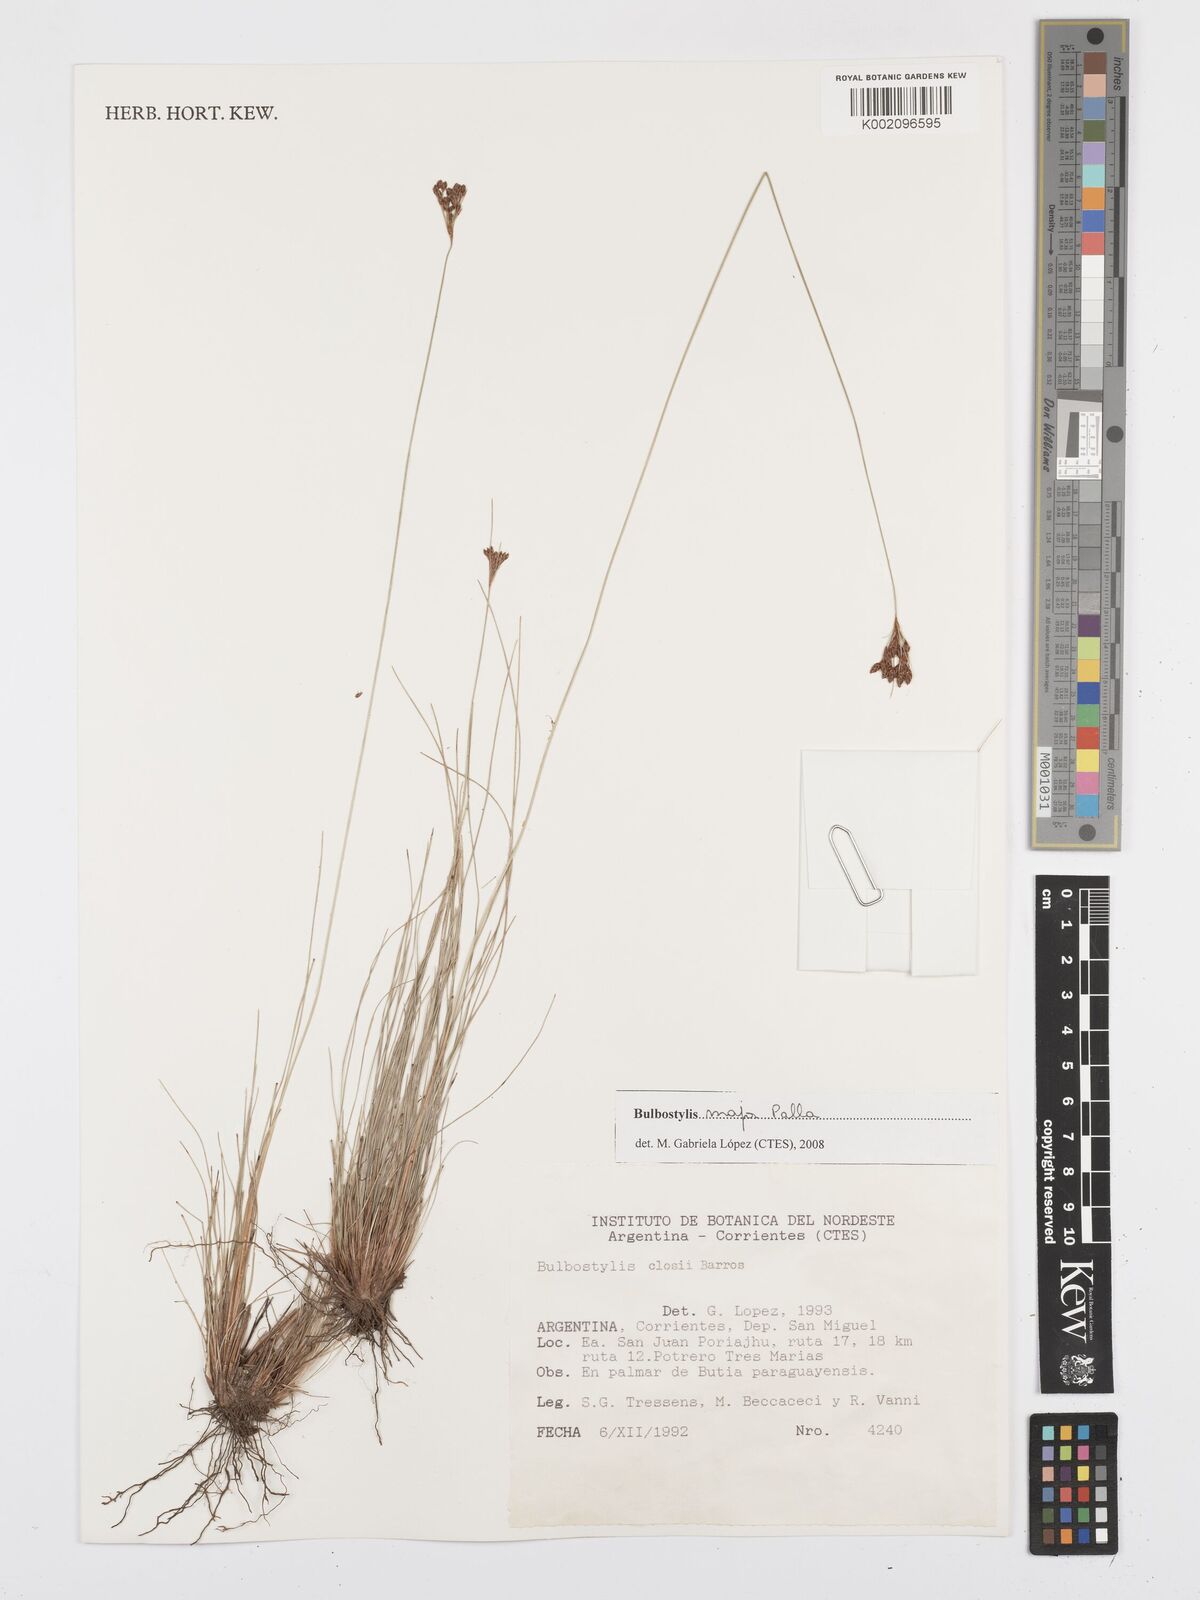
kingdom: Plantae
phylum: Tracheophyta
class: Liliopsida
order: Poales
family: Cyperaceae
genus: Bulbostylis
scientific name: Bulbostylis major
